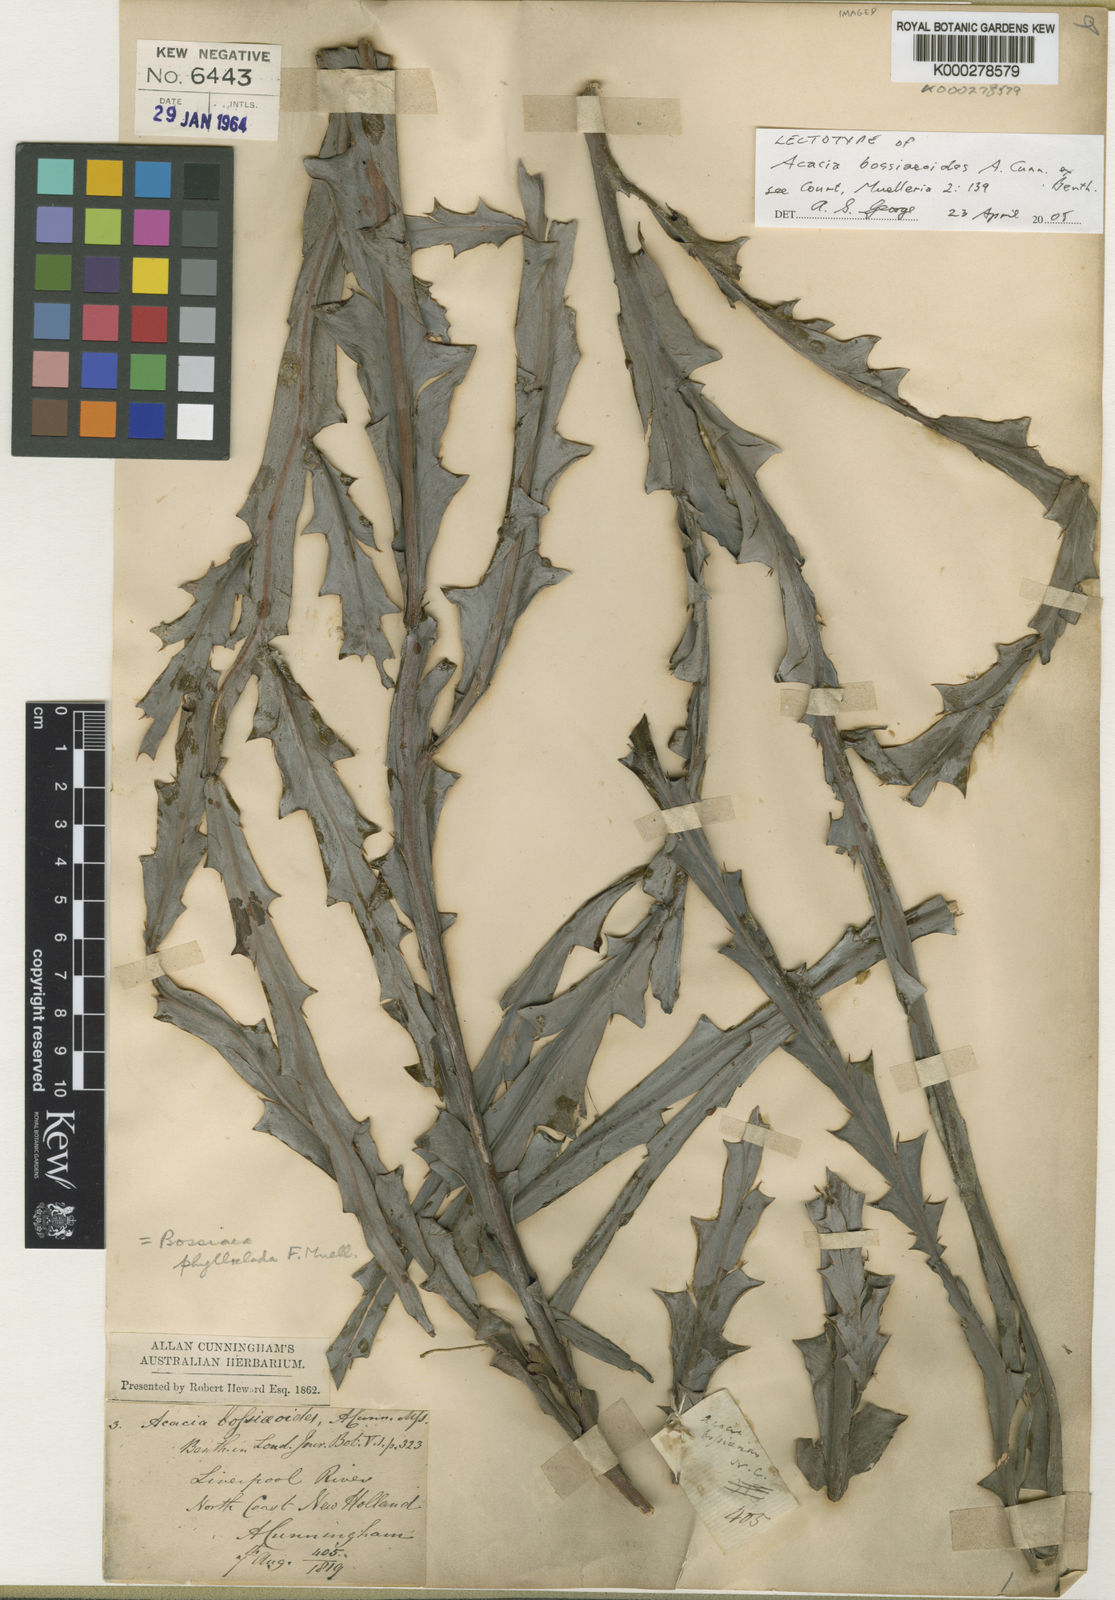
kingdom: Plantae
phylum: Tracheophyta
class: Magnoliopsida
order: Fabales
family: Fabaceae
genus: Bossiaea
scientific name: Bossiaea phylloclada
